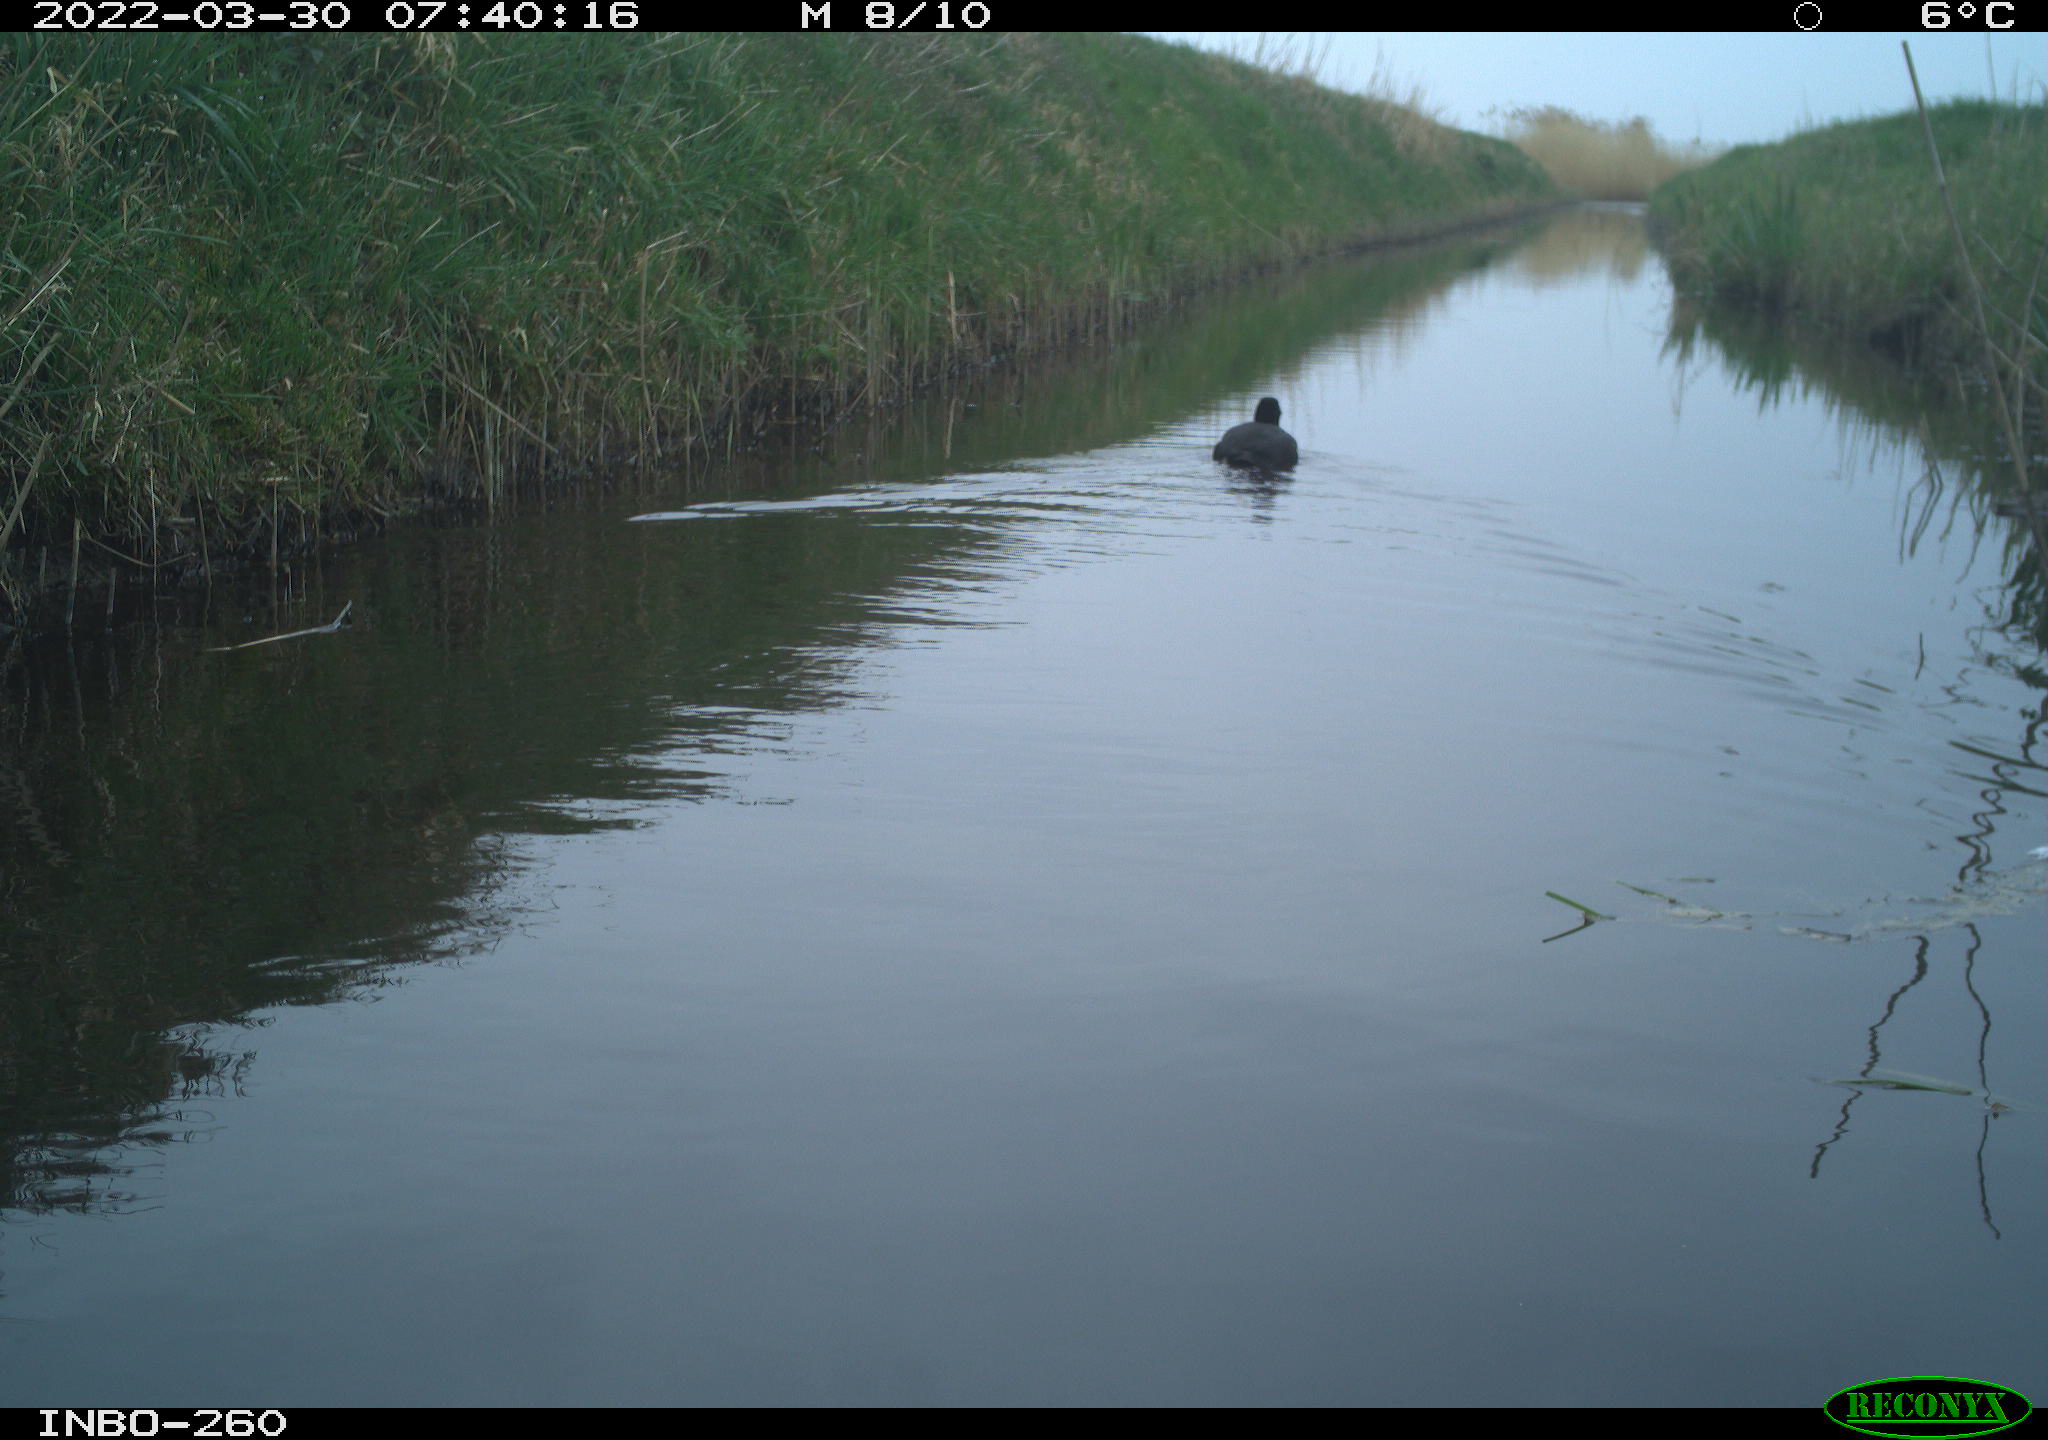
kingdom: Animalia
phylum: Chordata
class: Aves
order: Gruiformes
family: Rallidae
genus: Fulica
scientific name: Fulica atra
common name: Eurasian coot
